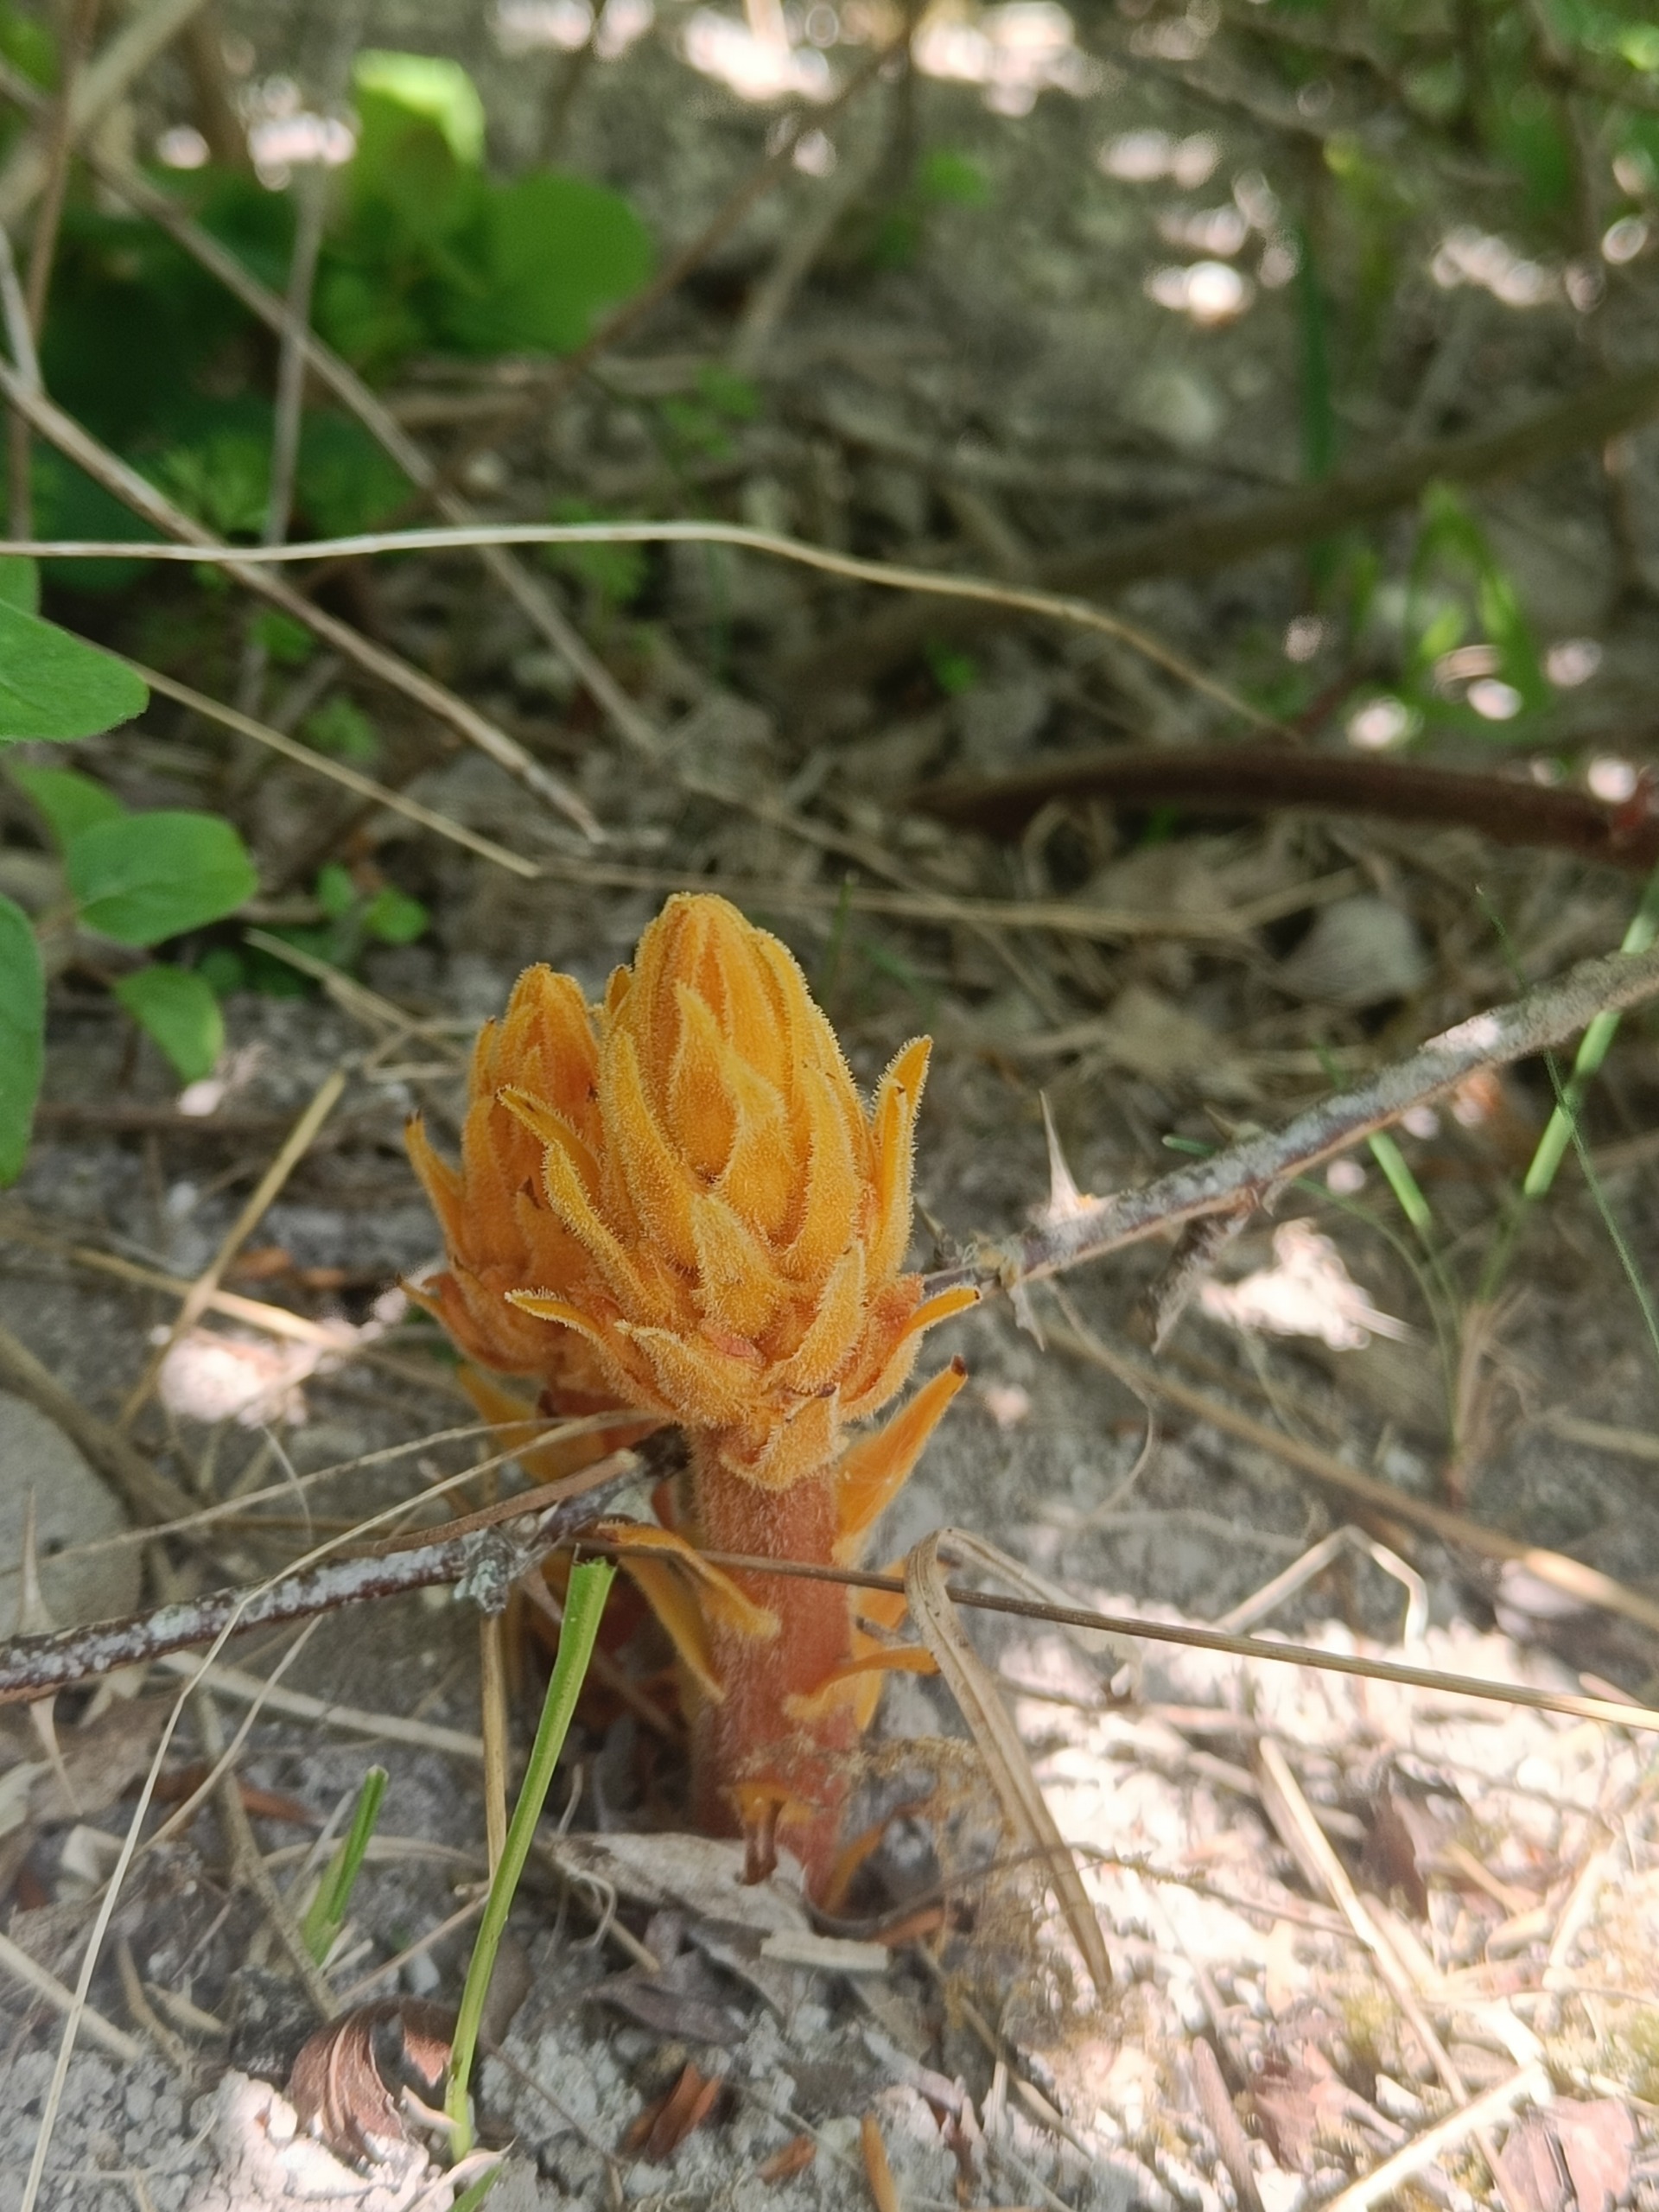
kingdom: Plantae
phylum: Tracheophyta
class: Magnoliopsida
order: Lamiales
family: Orobanchaceae
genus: Orobanche
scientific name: Orobanche lucorum
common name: Berberis-gyvelkvæler
